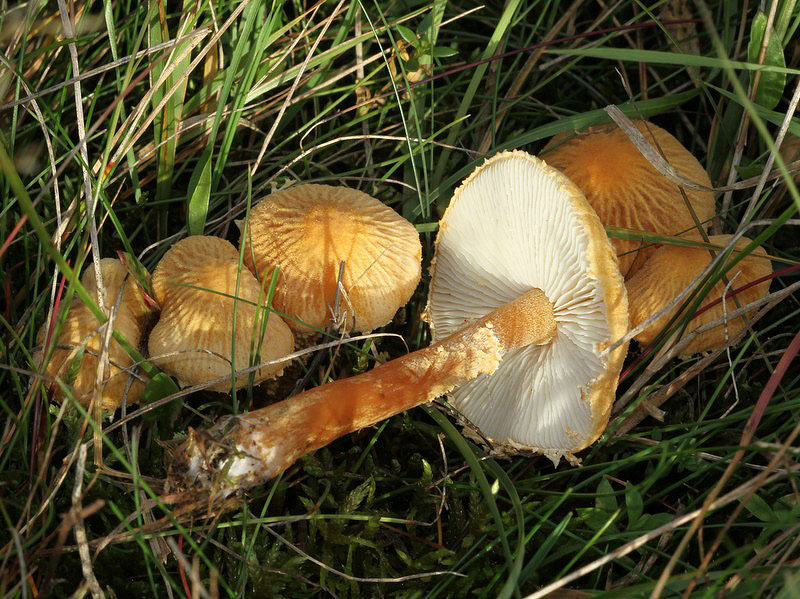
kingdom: Fungi
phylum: Basidiomycota
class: Agaricomycetes
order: Agaricales
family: Tricholomataceae
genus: Cystoderma
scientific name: Cystoderma amianthinum
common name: okkergul grynhat
